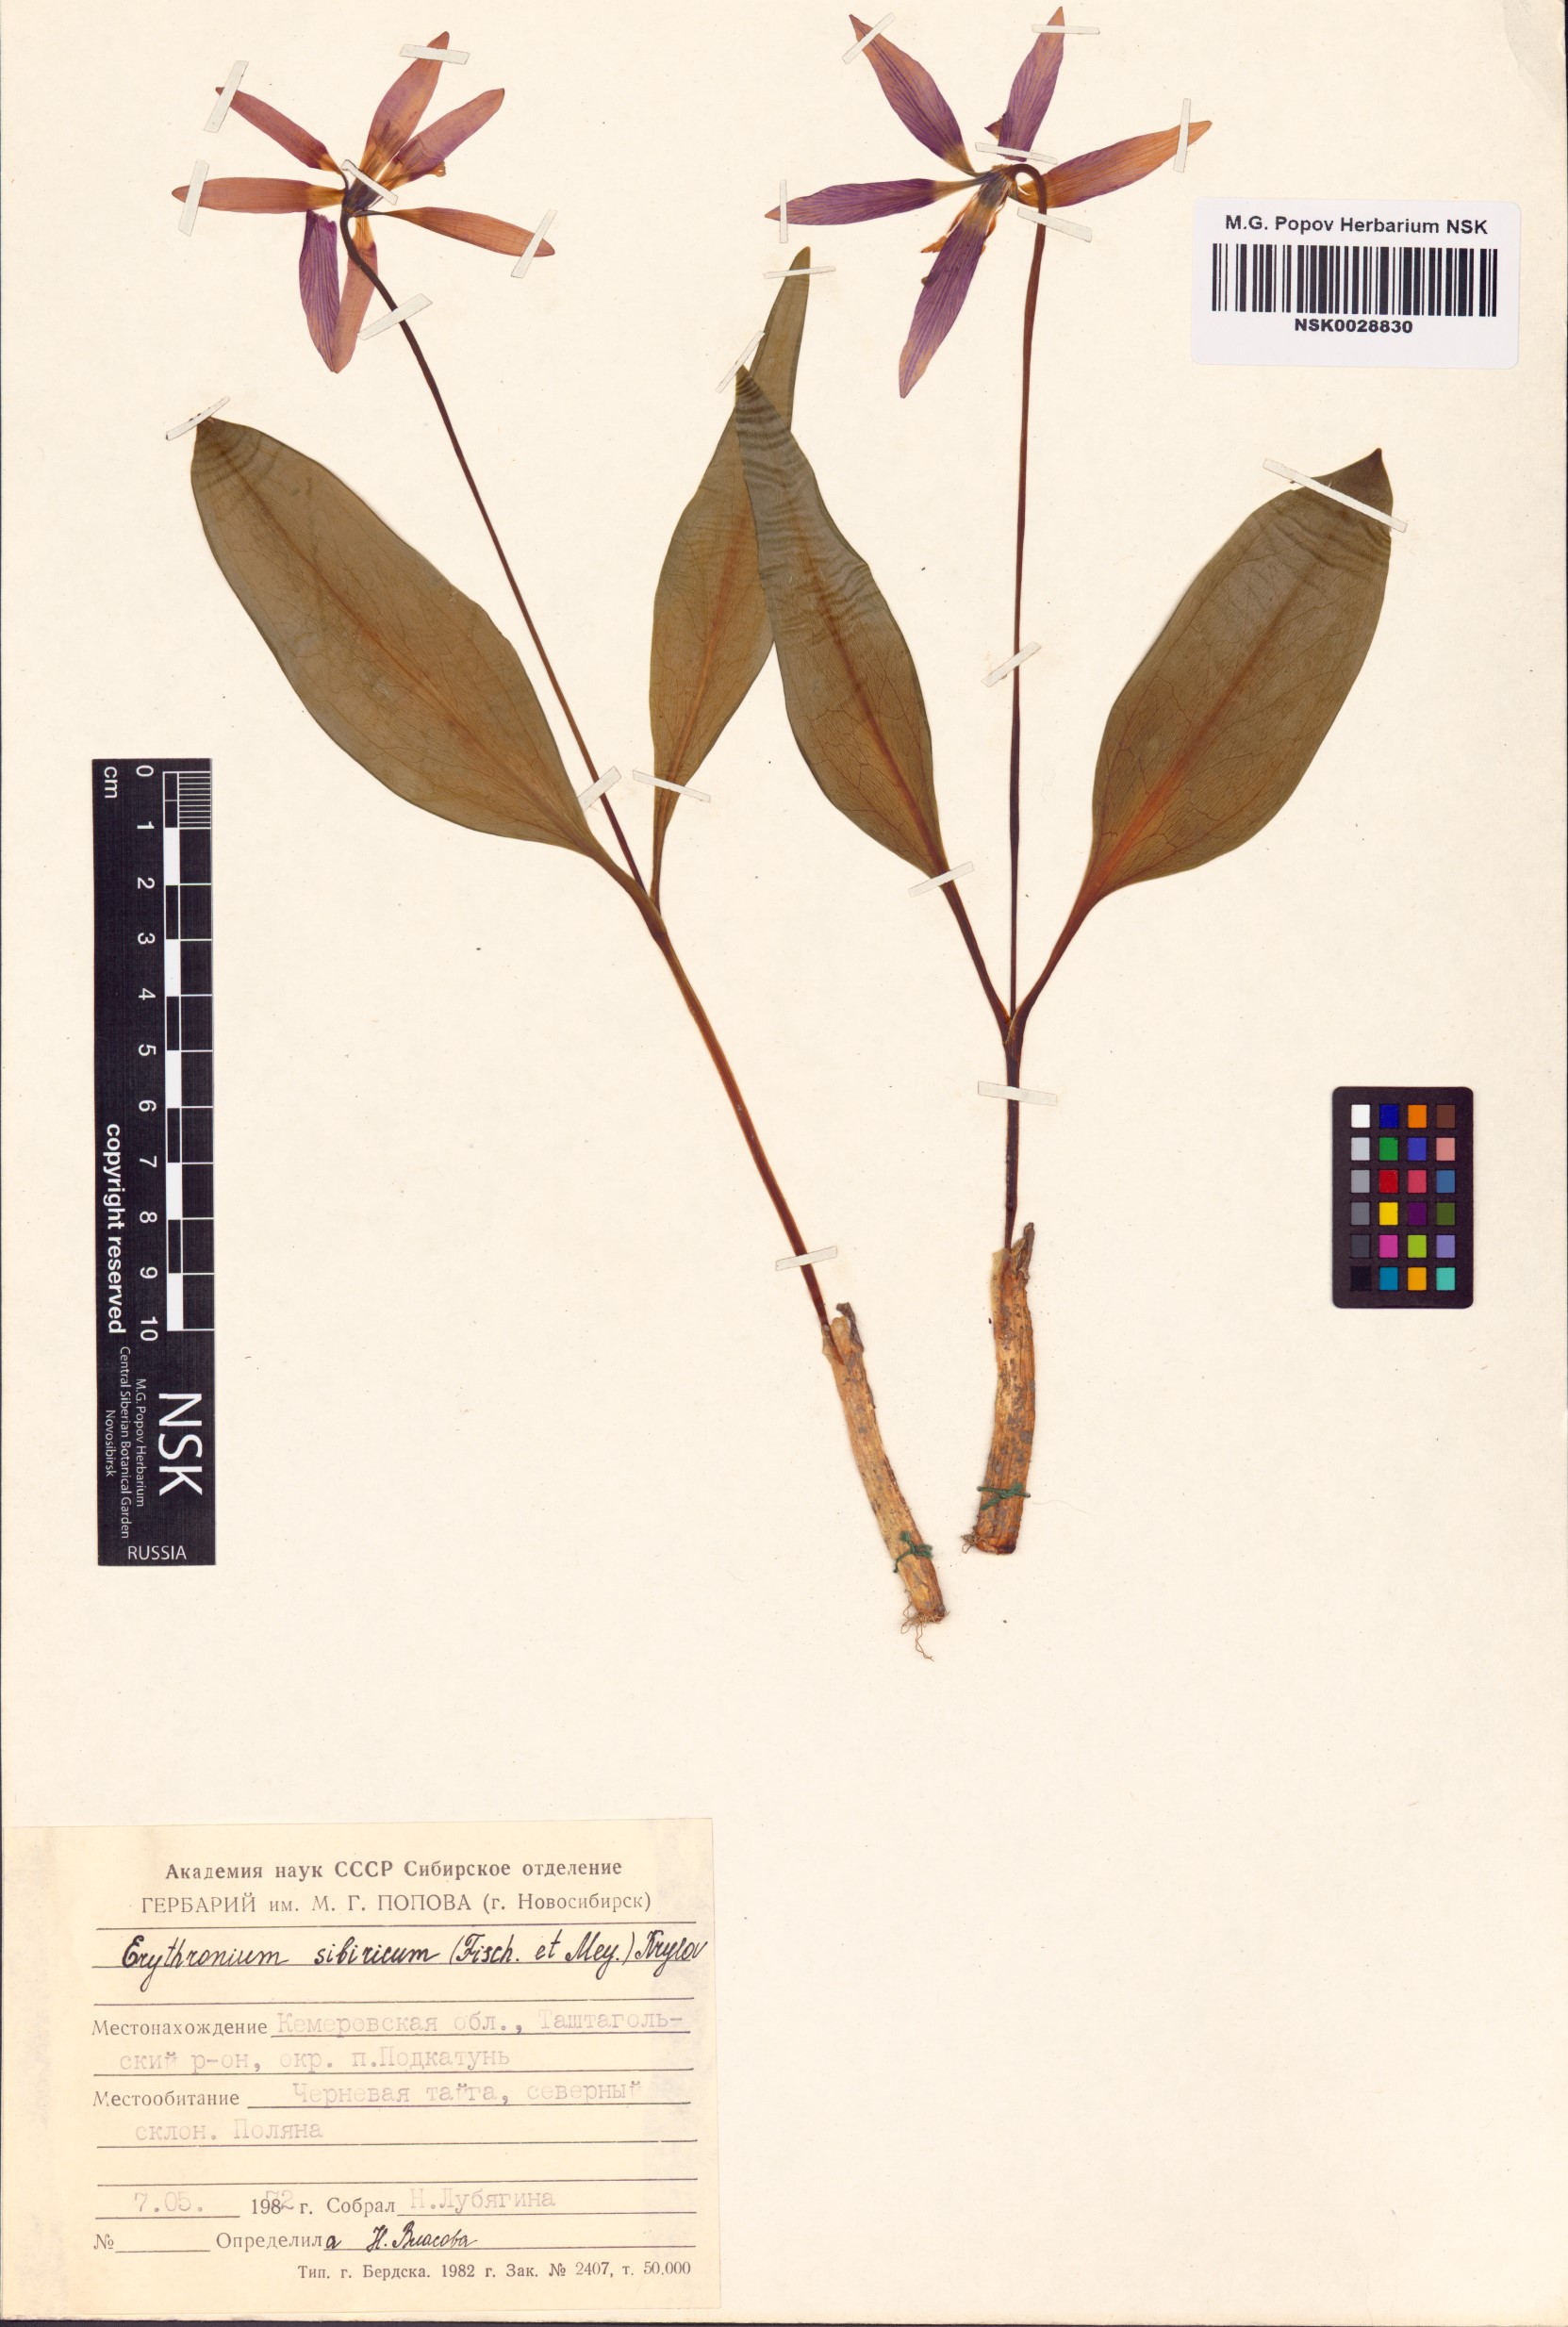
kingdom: Plantae
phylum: Tracheophyta
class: Liliopsida
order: Liliales
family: Liliaceae
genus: Erythronium
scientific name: Erythronium sibiricum
